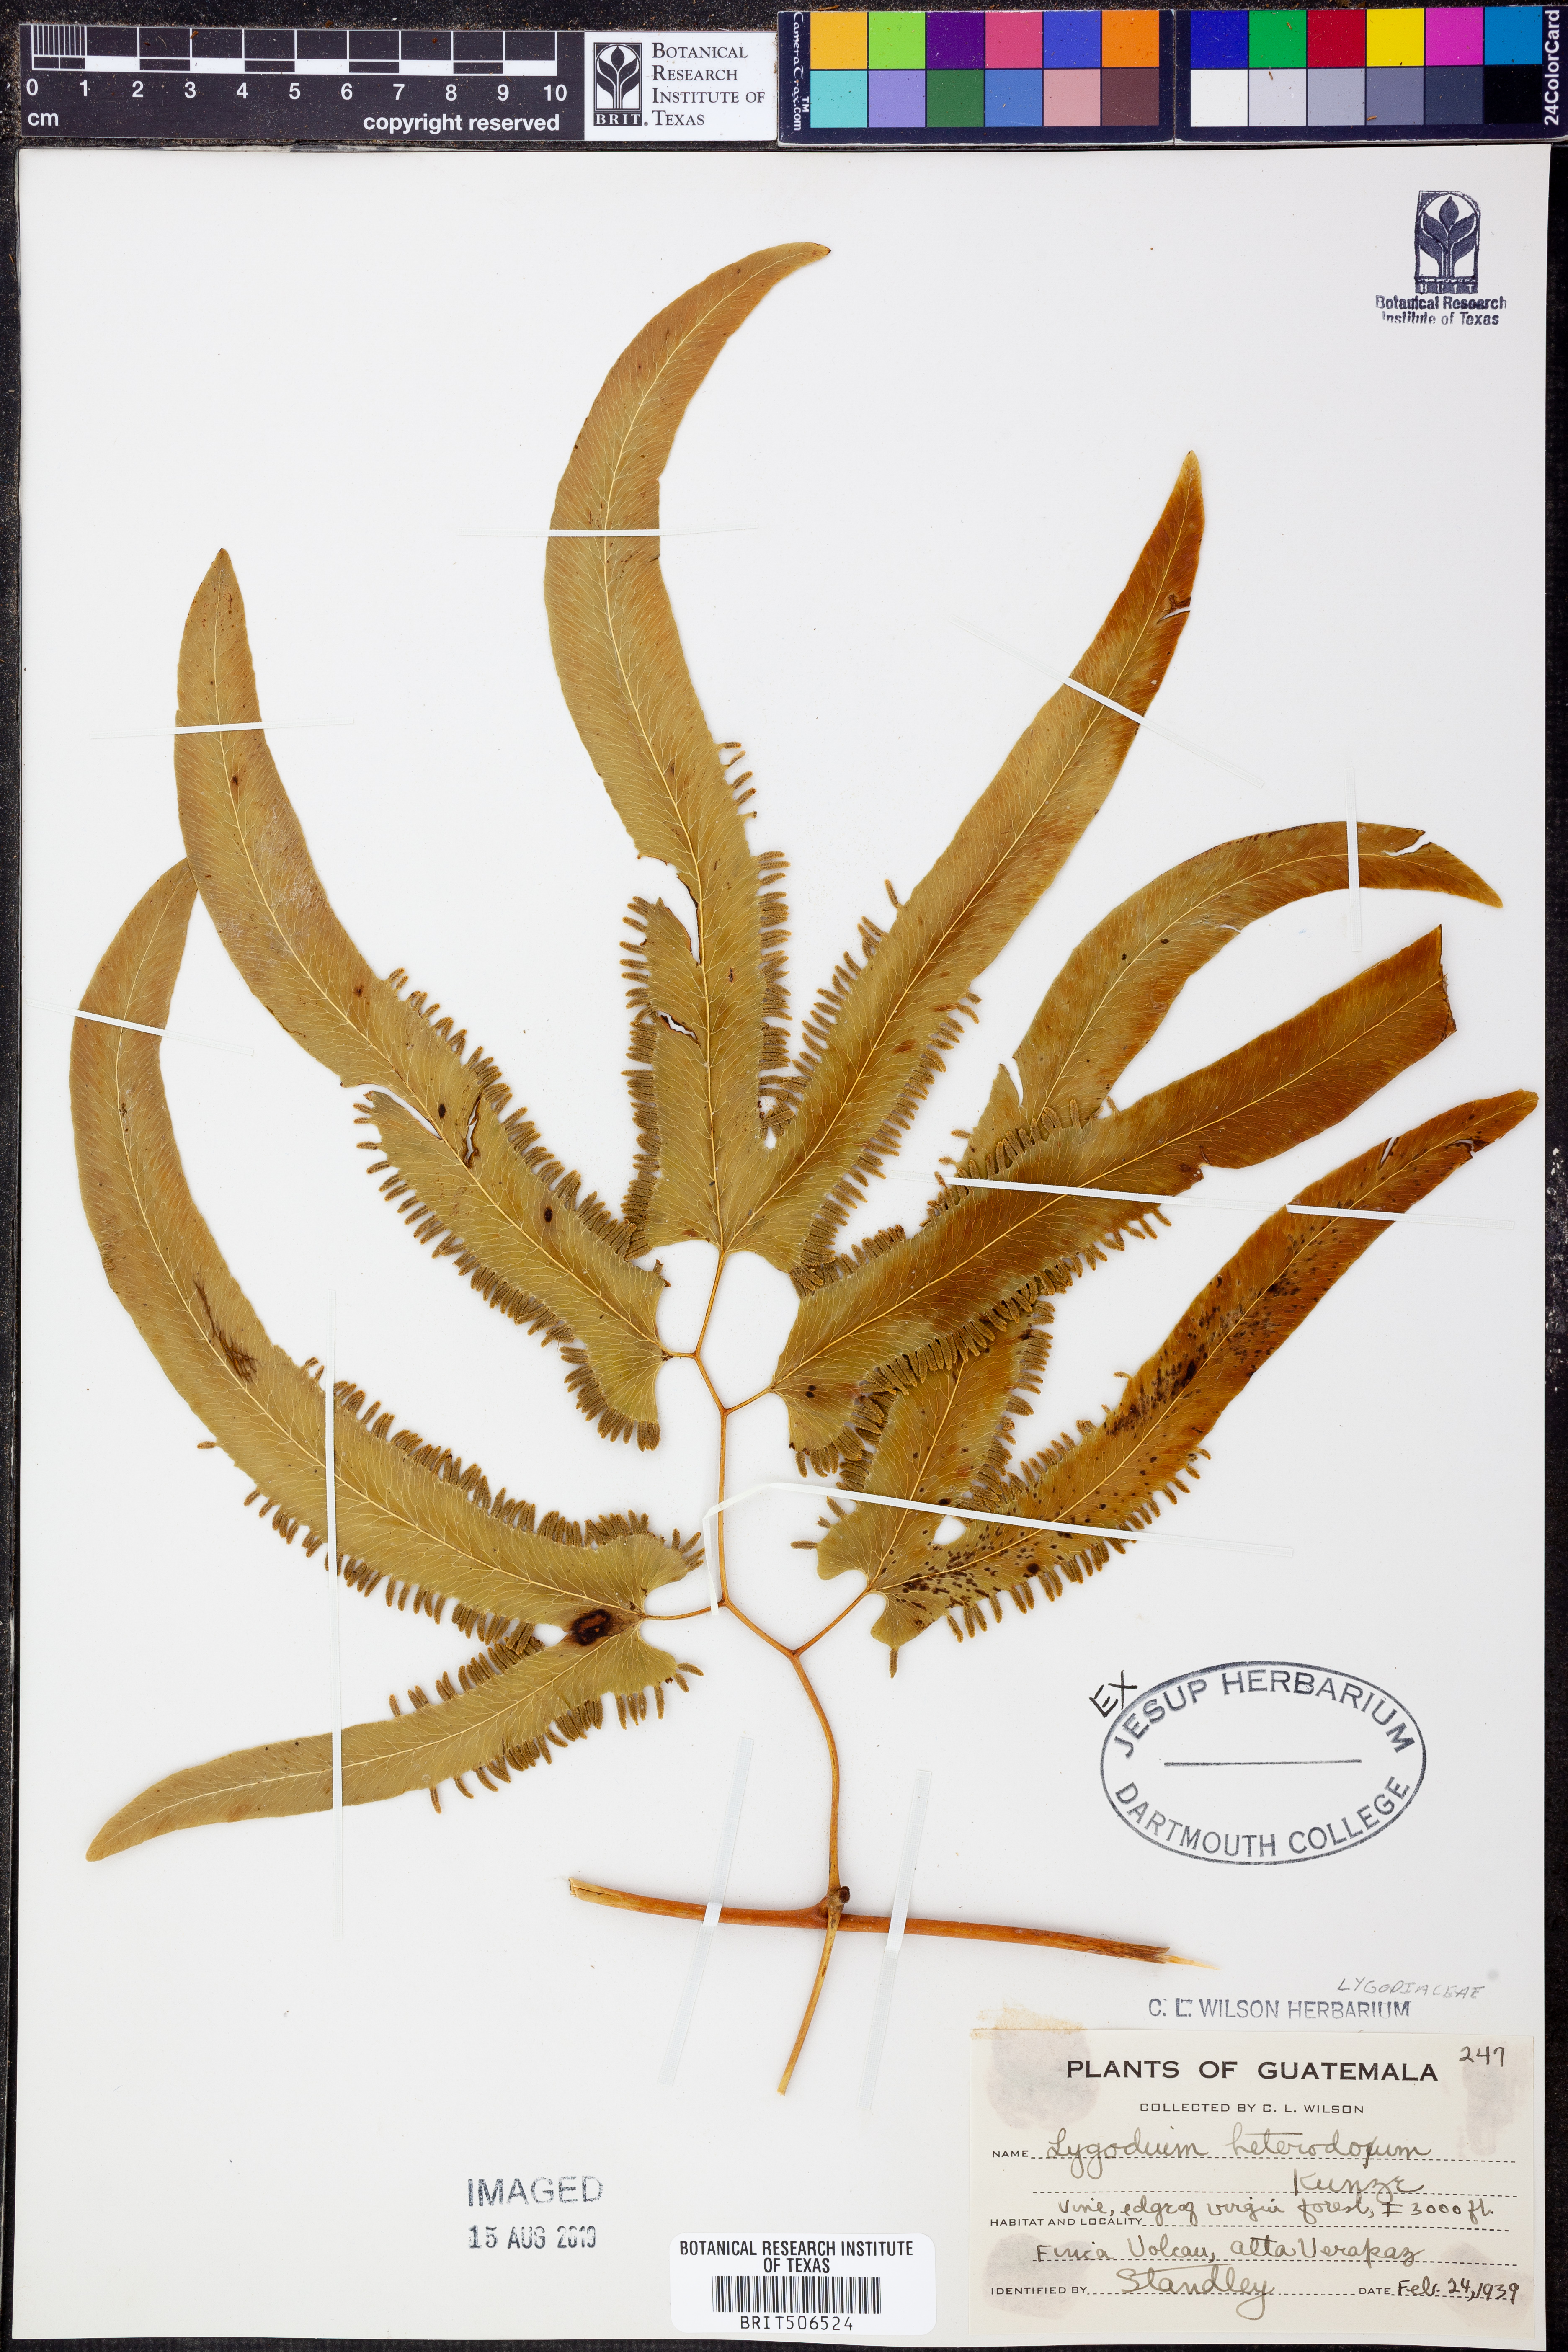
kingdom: Plantae
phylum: Tracheophyta
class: Polypodiopsida
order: Schizaeales
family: Lygodiaceae
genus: Lygodium
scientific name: Lygodium heterodoxum
